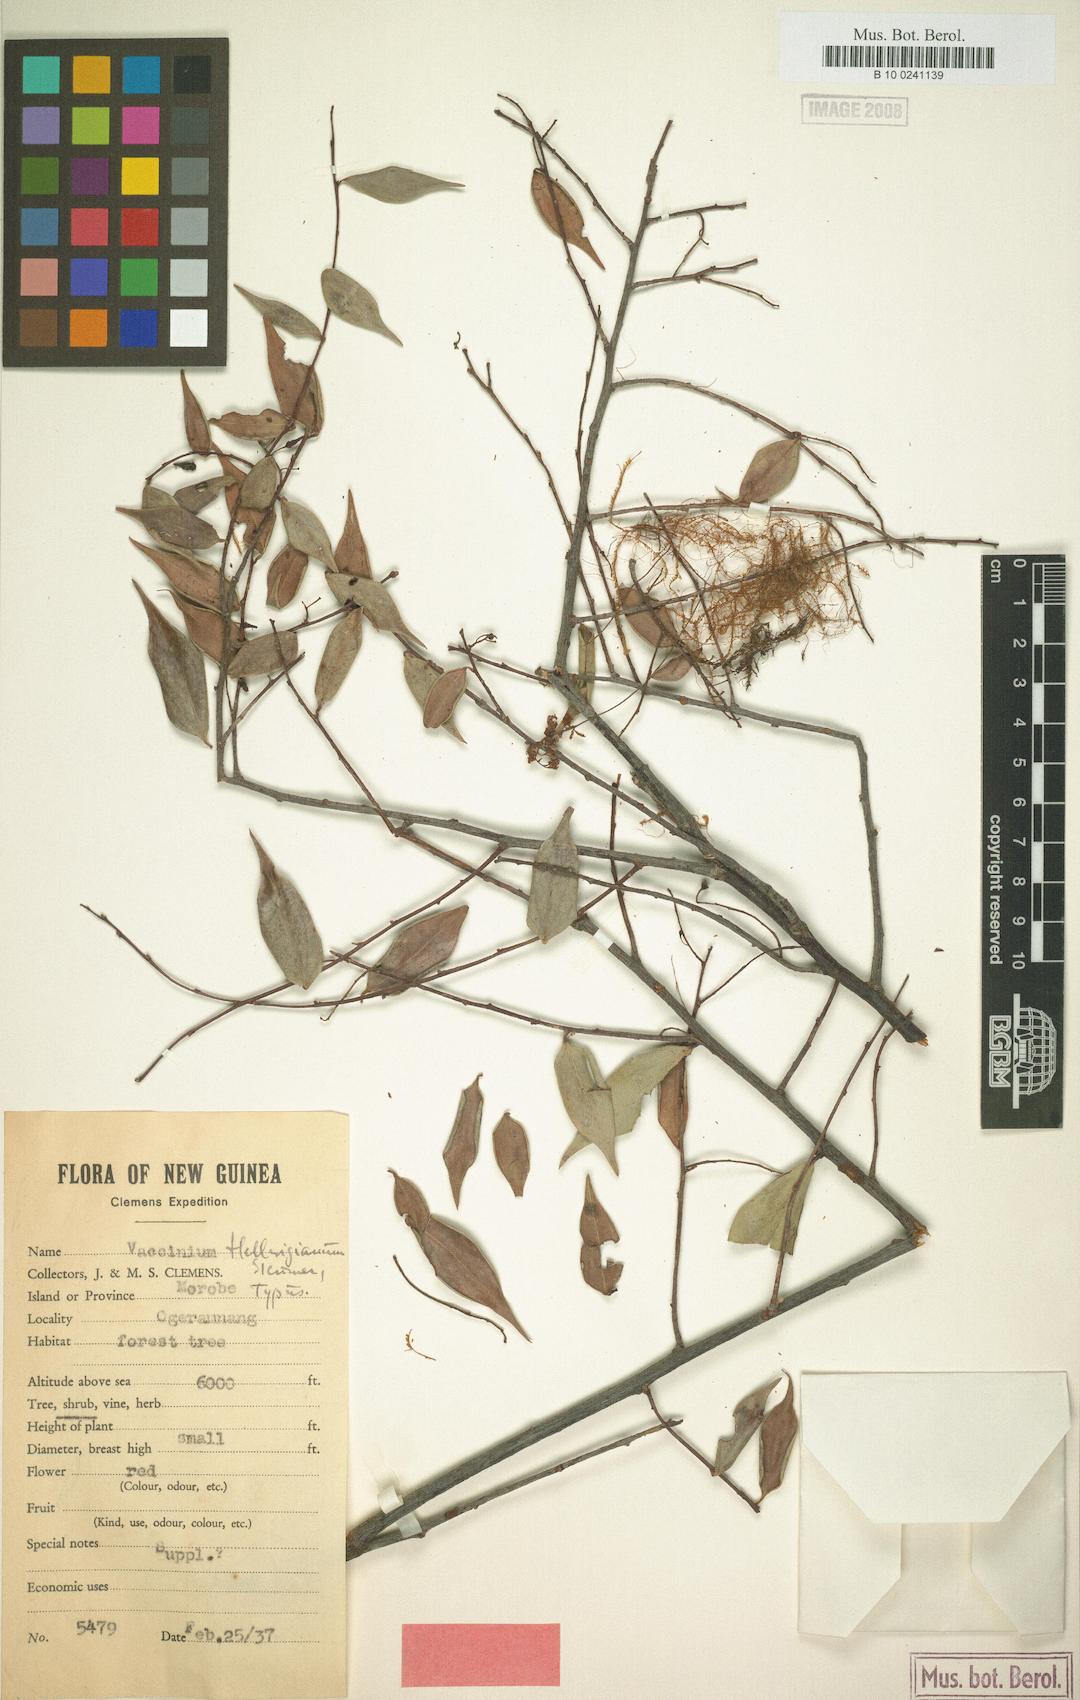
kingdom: Plantae
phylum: Tracheophyta
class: Magnoliopsida
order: Ericales
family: Ericaceae
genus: Vaccinium
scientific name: Vaccinium hellwigianum
